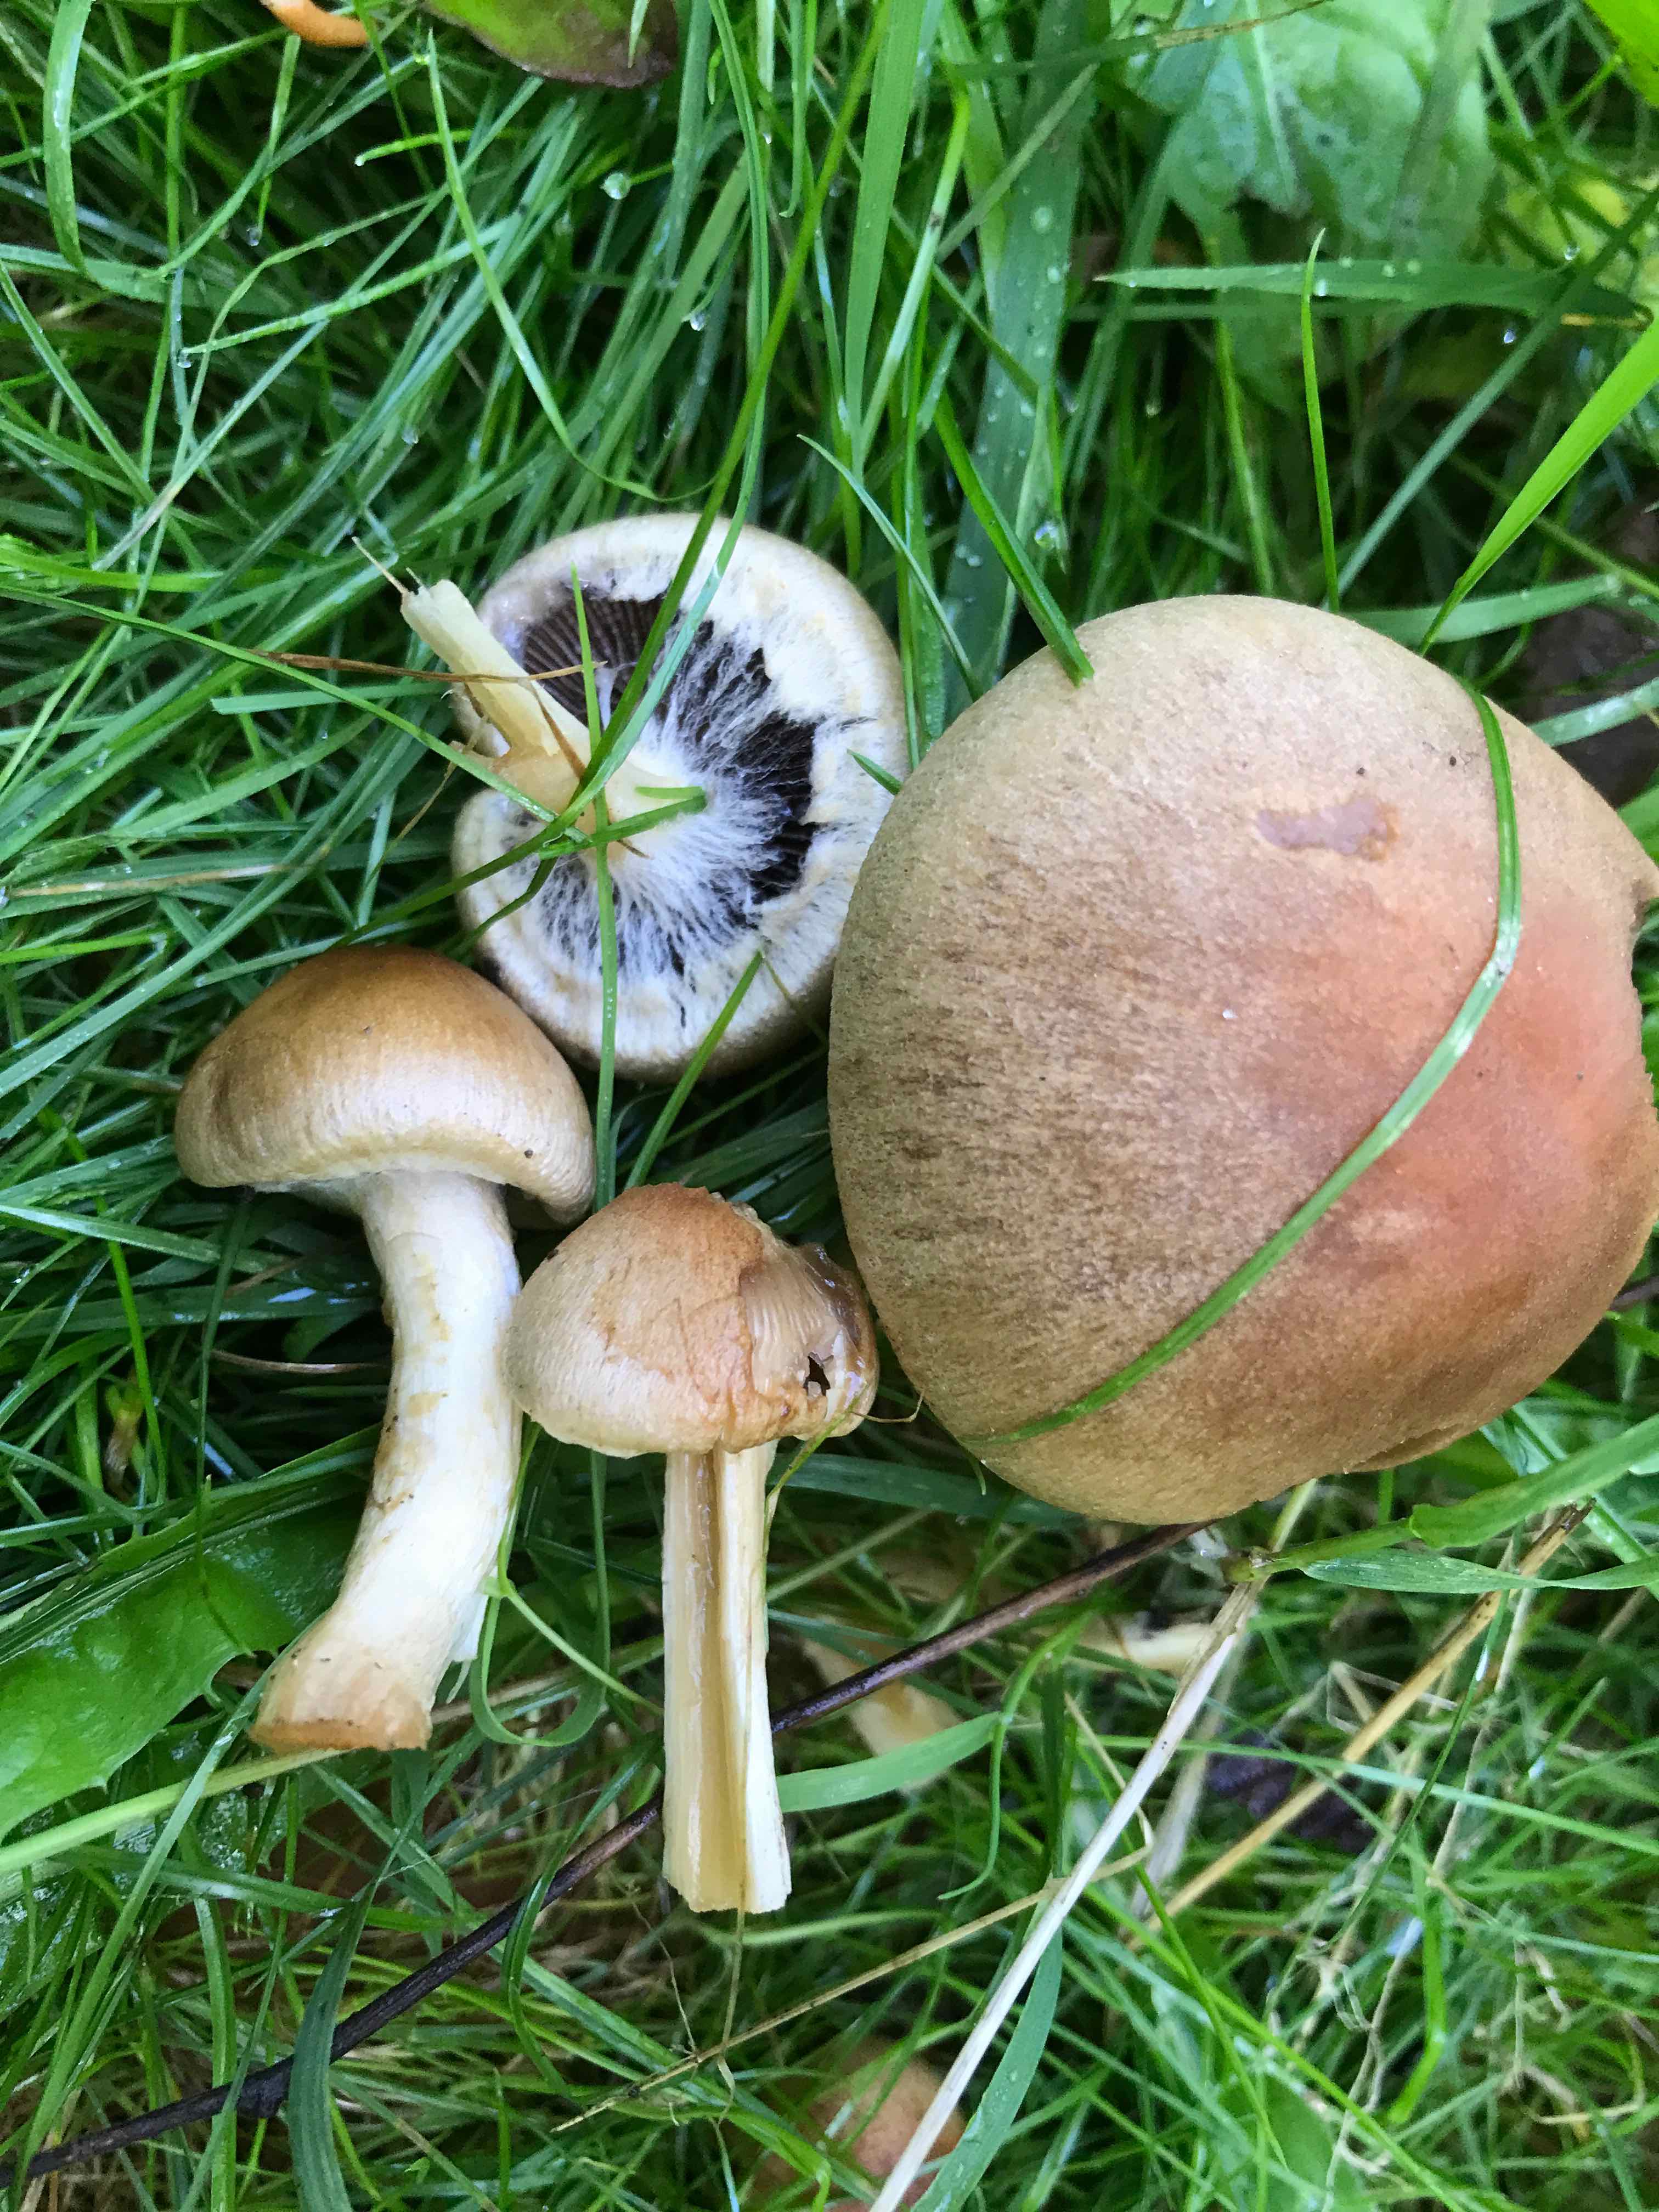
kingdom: Fungi
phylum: Basidiomycota
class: Agaricomycetes
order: Agaricales
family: Psathyrellaceae
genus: Lacrymaria
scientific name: Lacrymaria lacrymabunda
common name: grædende mørkhat
